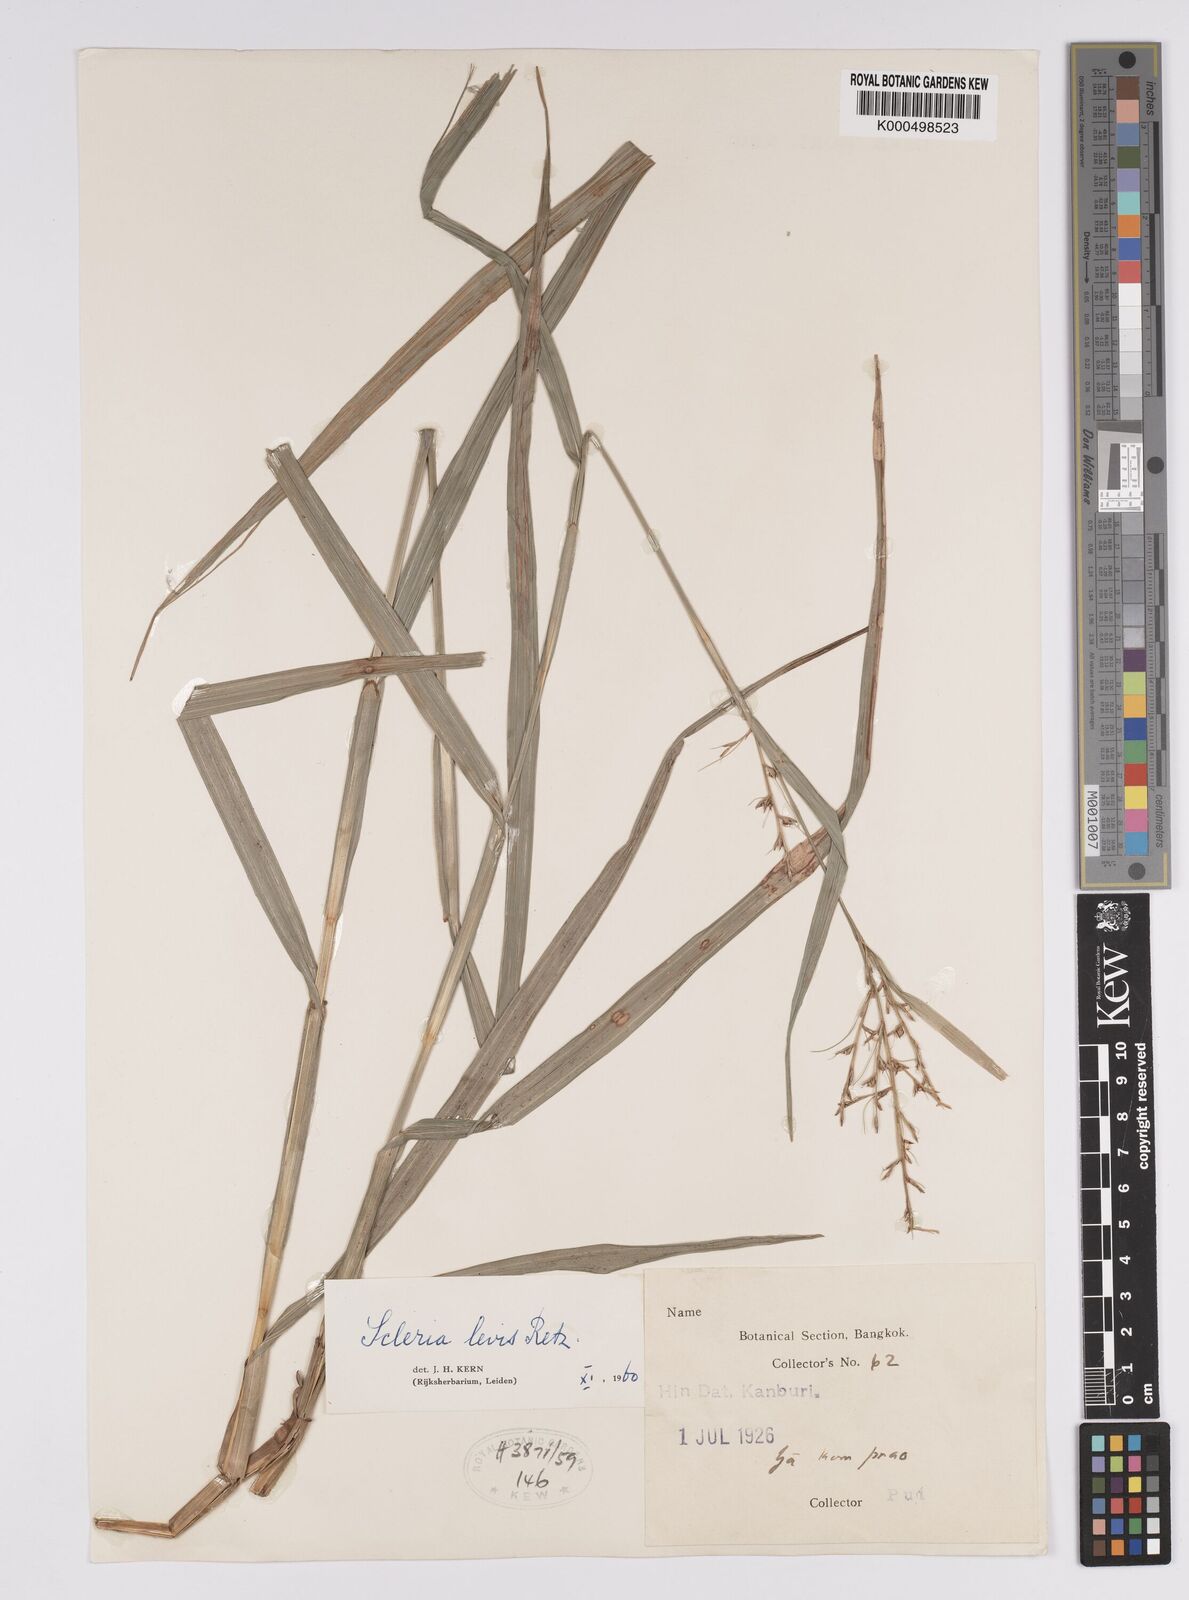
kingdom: Plantae
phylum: Tracheophyta
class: Liliopsida
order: Poales
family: Cyperaceae
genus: Scleria
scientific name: Scleria levis
